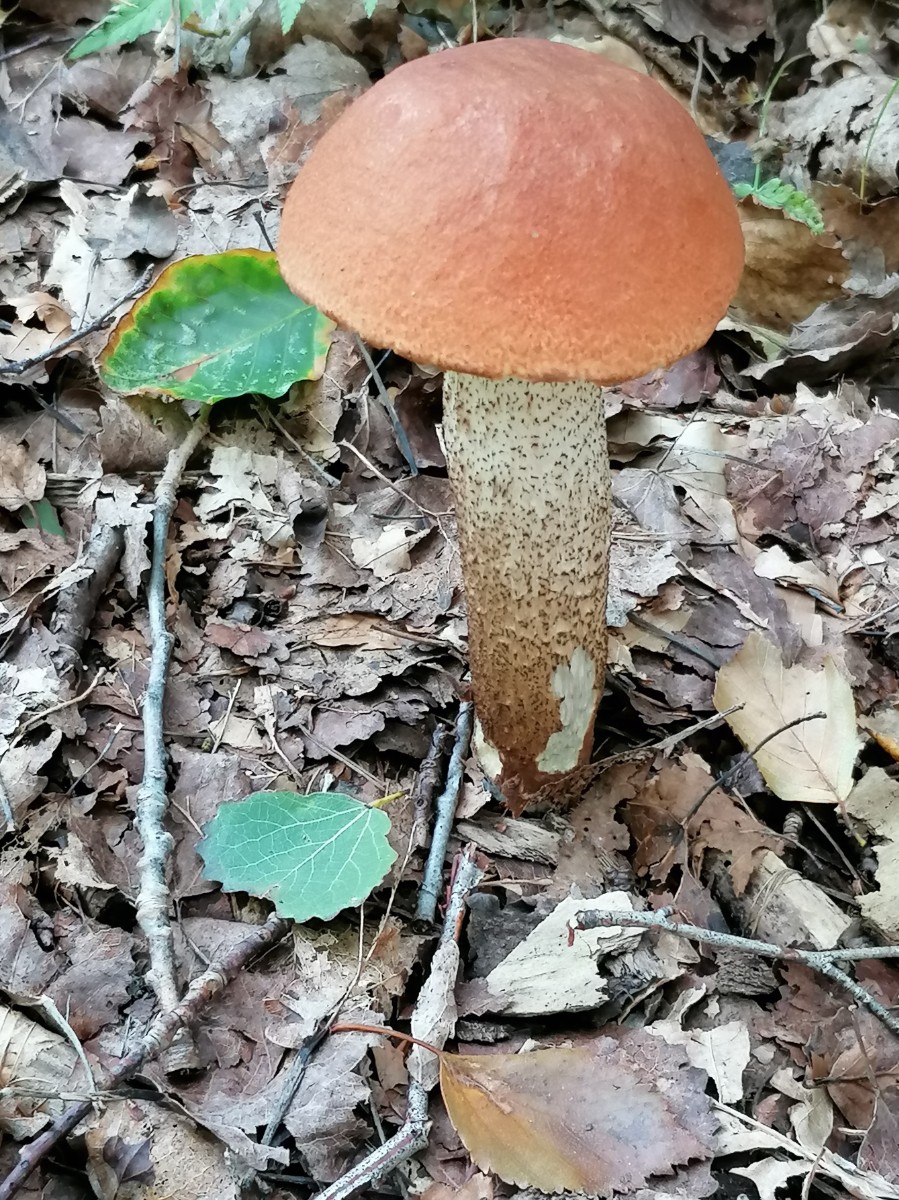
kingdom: Fungi
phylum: Basidiomycota
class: Agaricomycetes
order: Boletales
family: Boletaceae
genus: Leccinum
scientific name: Leccinum aurantiacum
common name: rustrød skælrørhat
